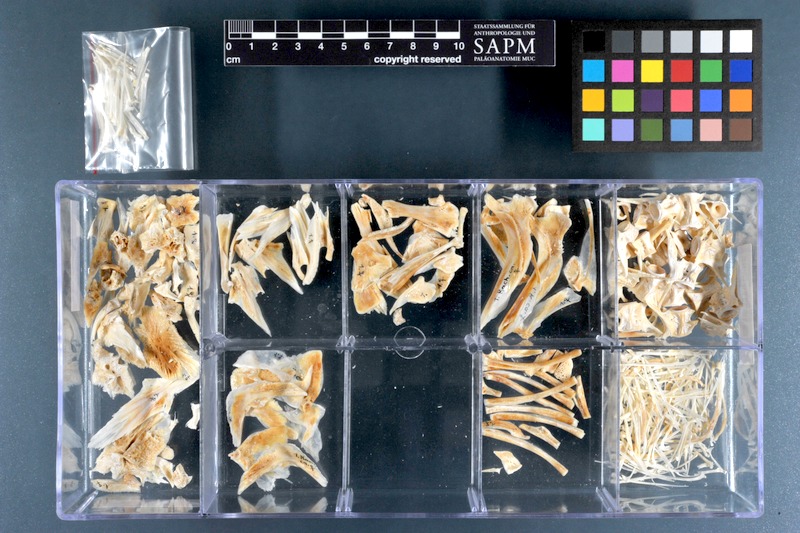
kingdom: Animalia
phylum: Chordata
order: Perciformes
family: Rachycentridae
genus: Rachycentron
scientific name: Rachycentron canadum
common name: Cobia
